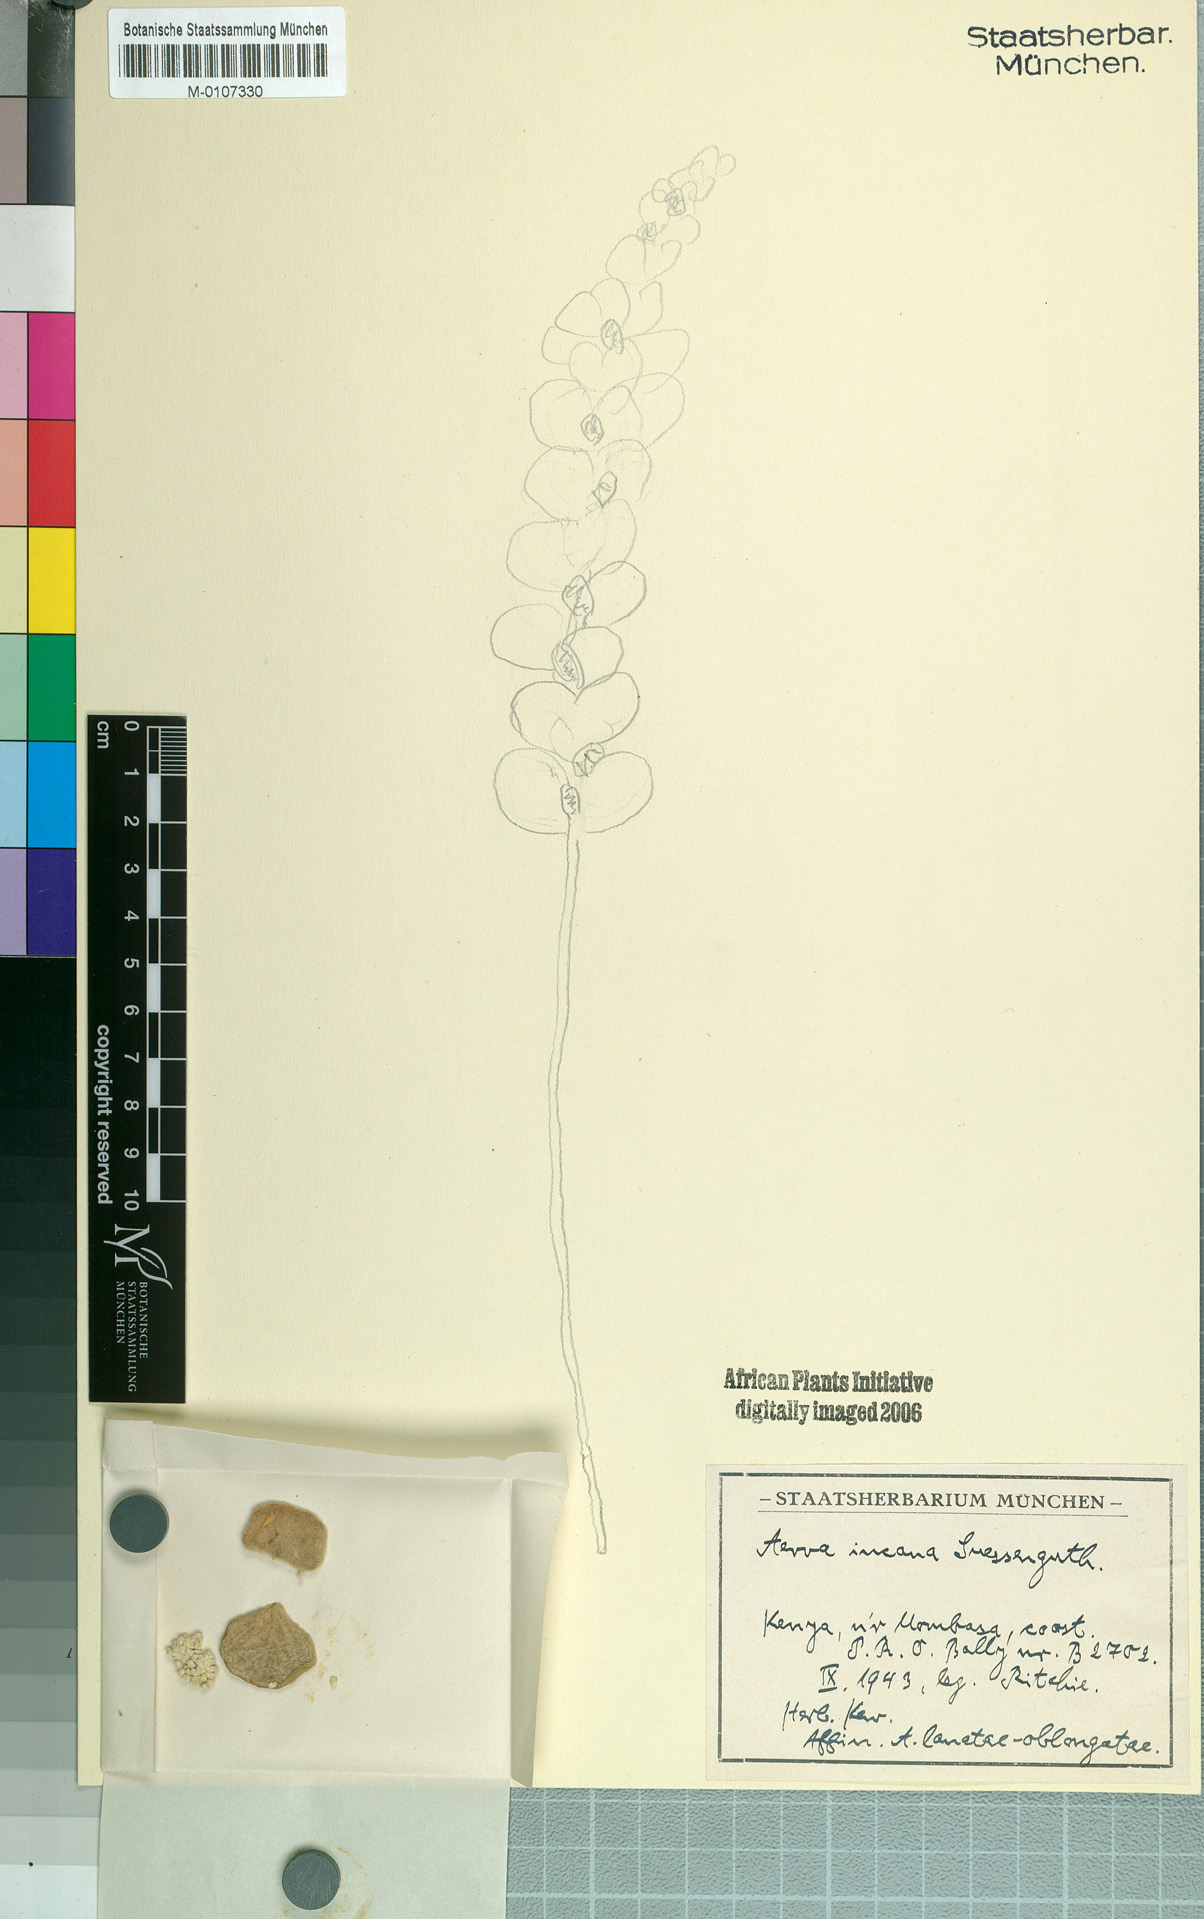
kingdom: Plantae
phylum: Tracheophyta
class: Magnoliopsida
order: Caryophyllales
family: Amaranthaceae
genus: Ouret
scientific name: Ouret lanata
